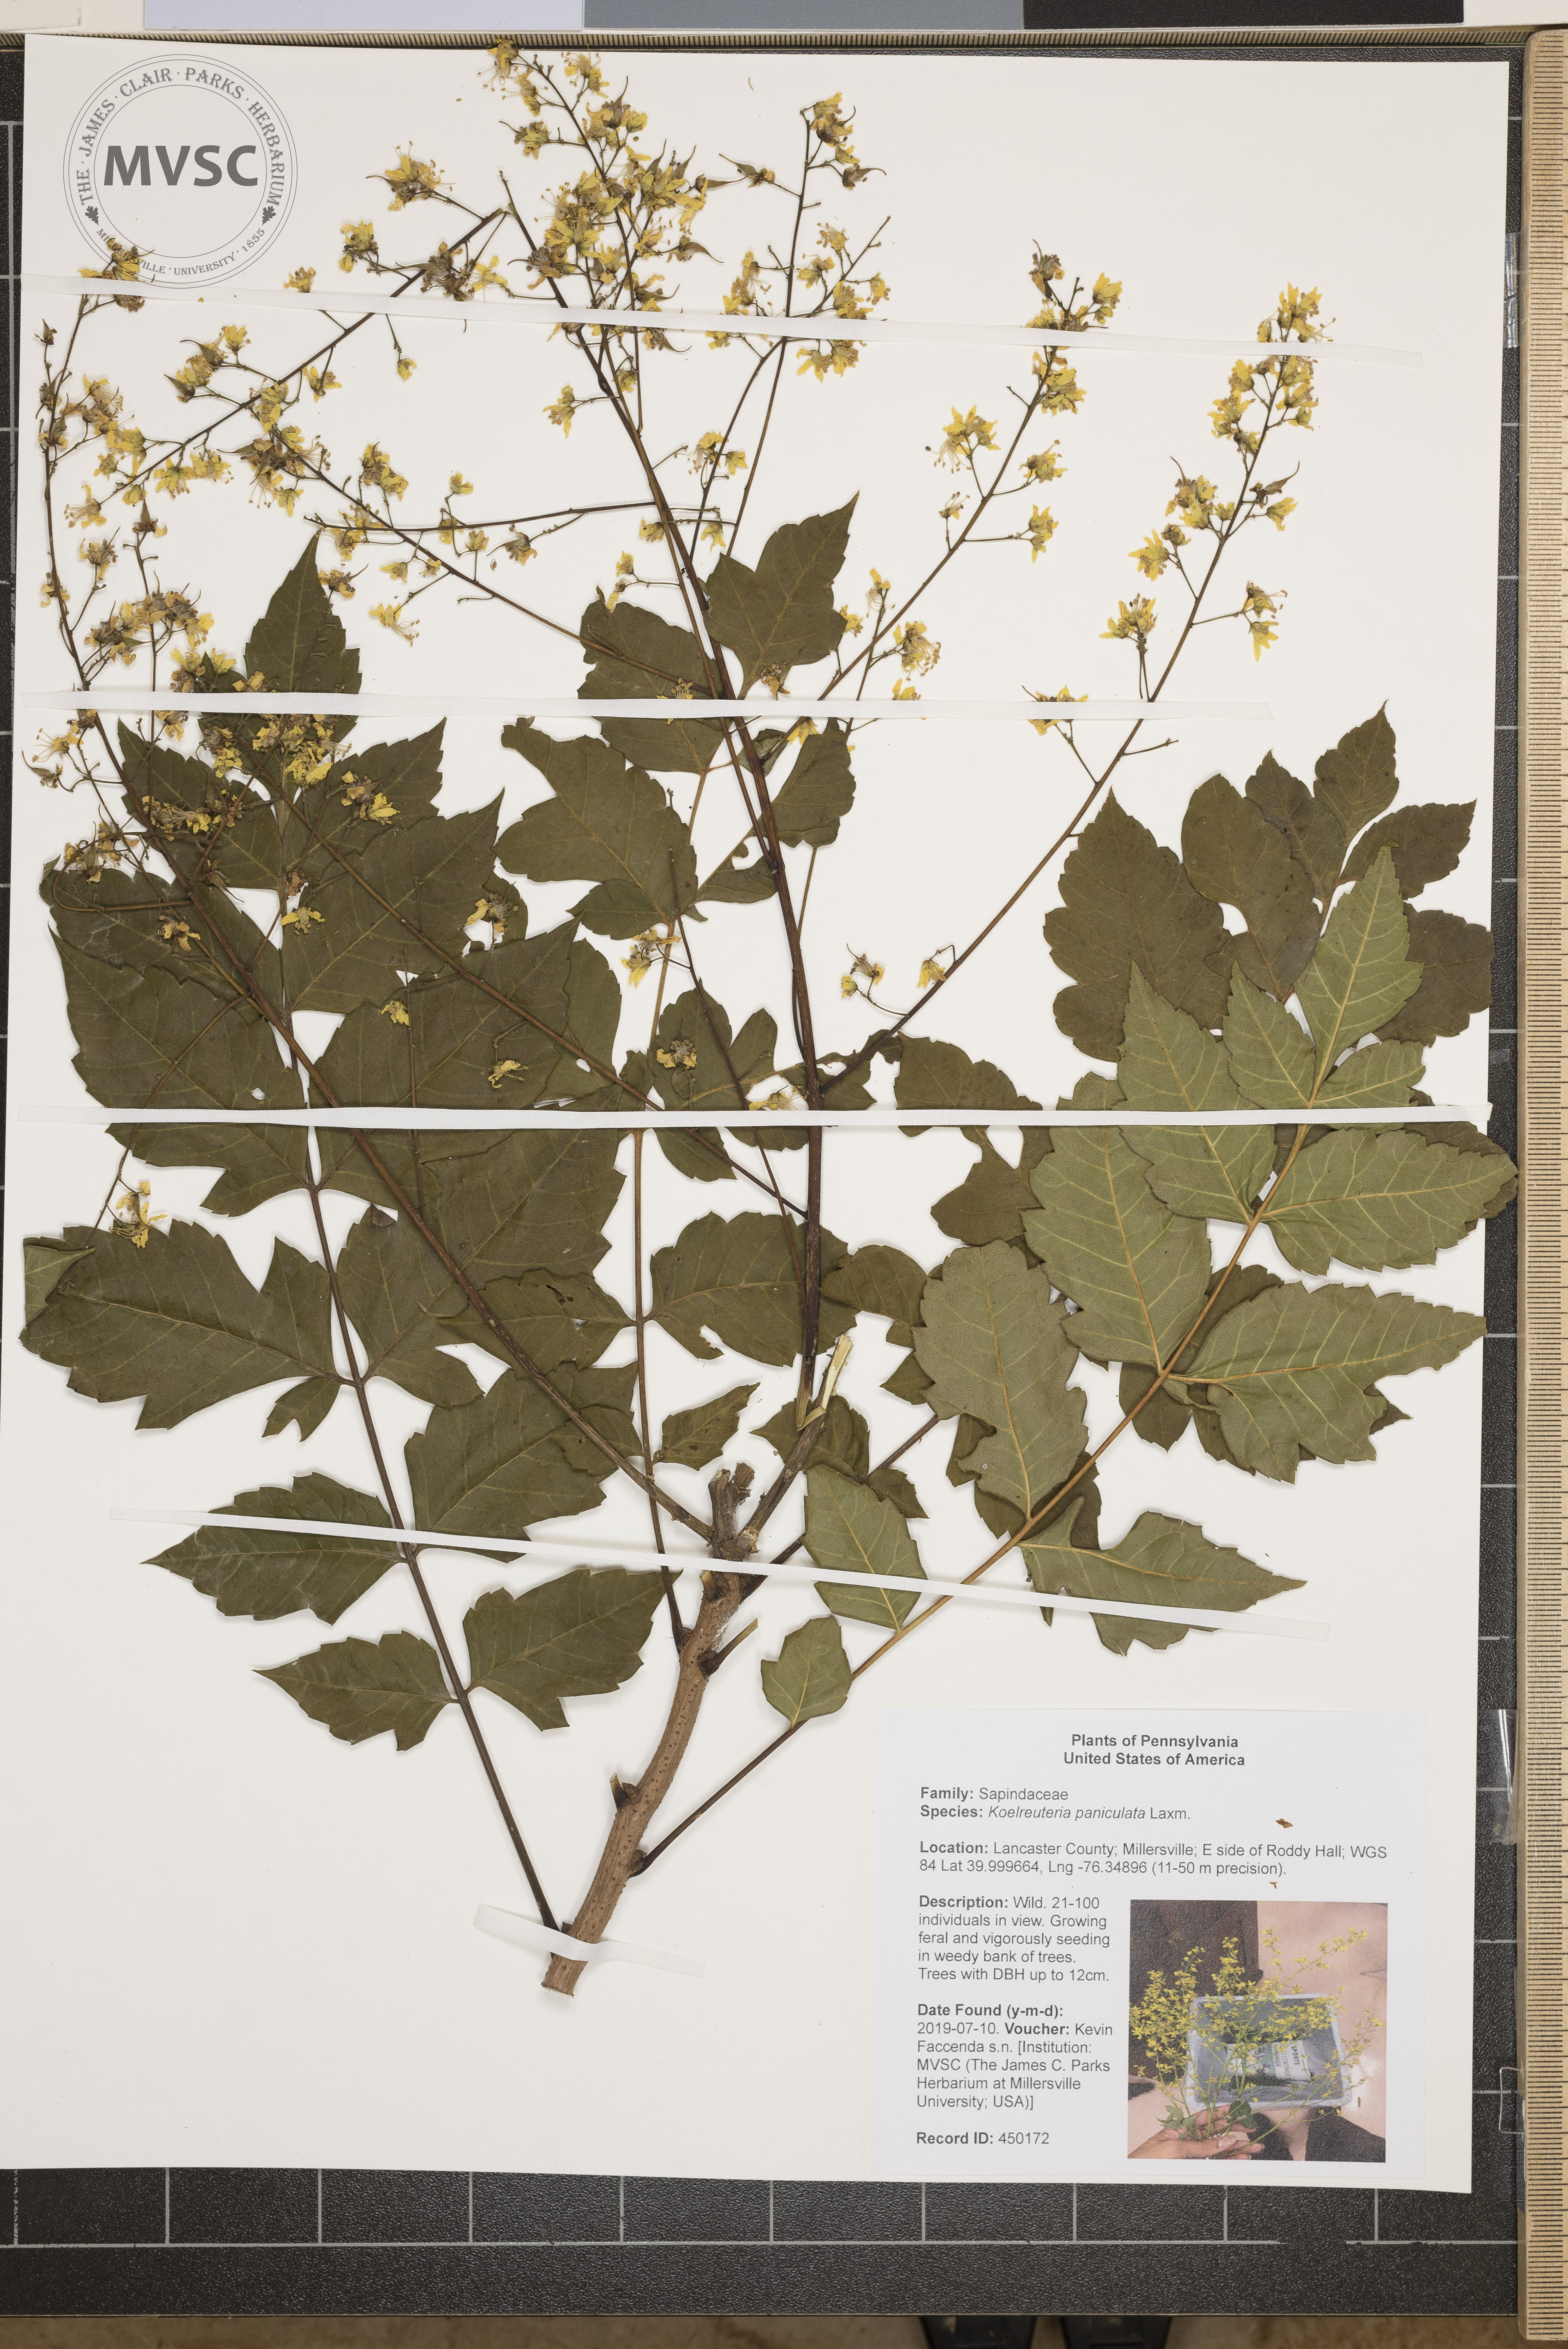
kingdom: Plantae
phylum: Tracheophyta
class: Magnoliopsida
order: Sapindales
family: Sapindaceae
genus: Koelreuteria
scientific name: Koelreuteria paniculata
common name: Pride-of-india
